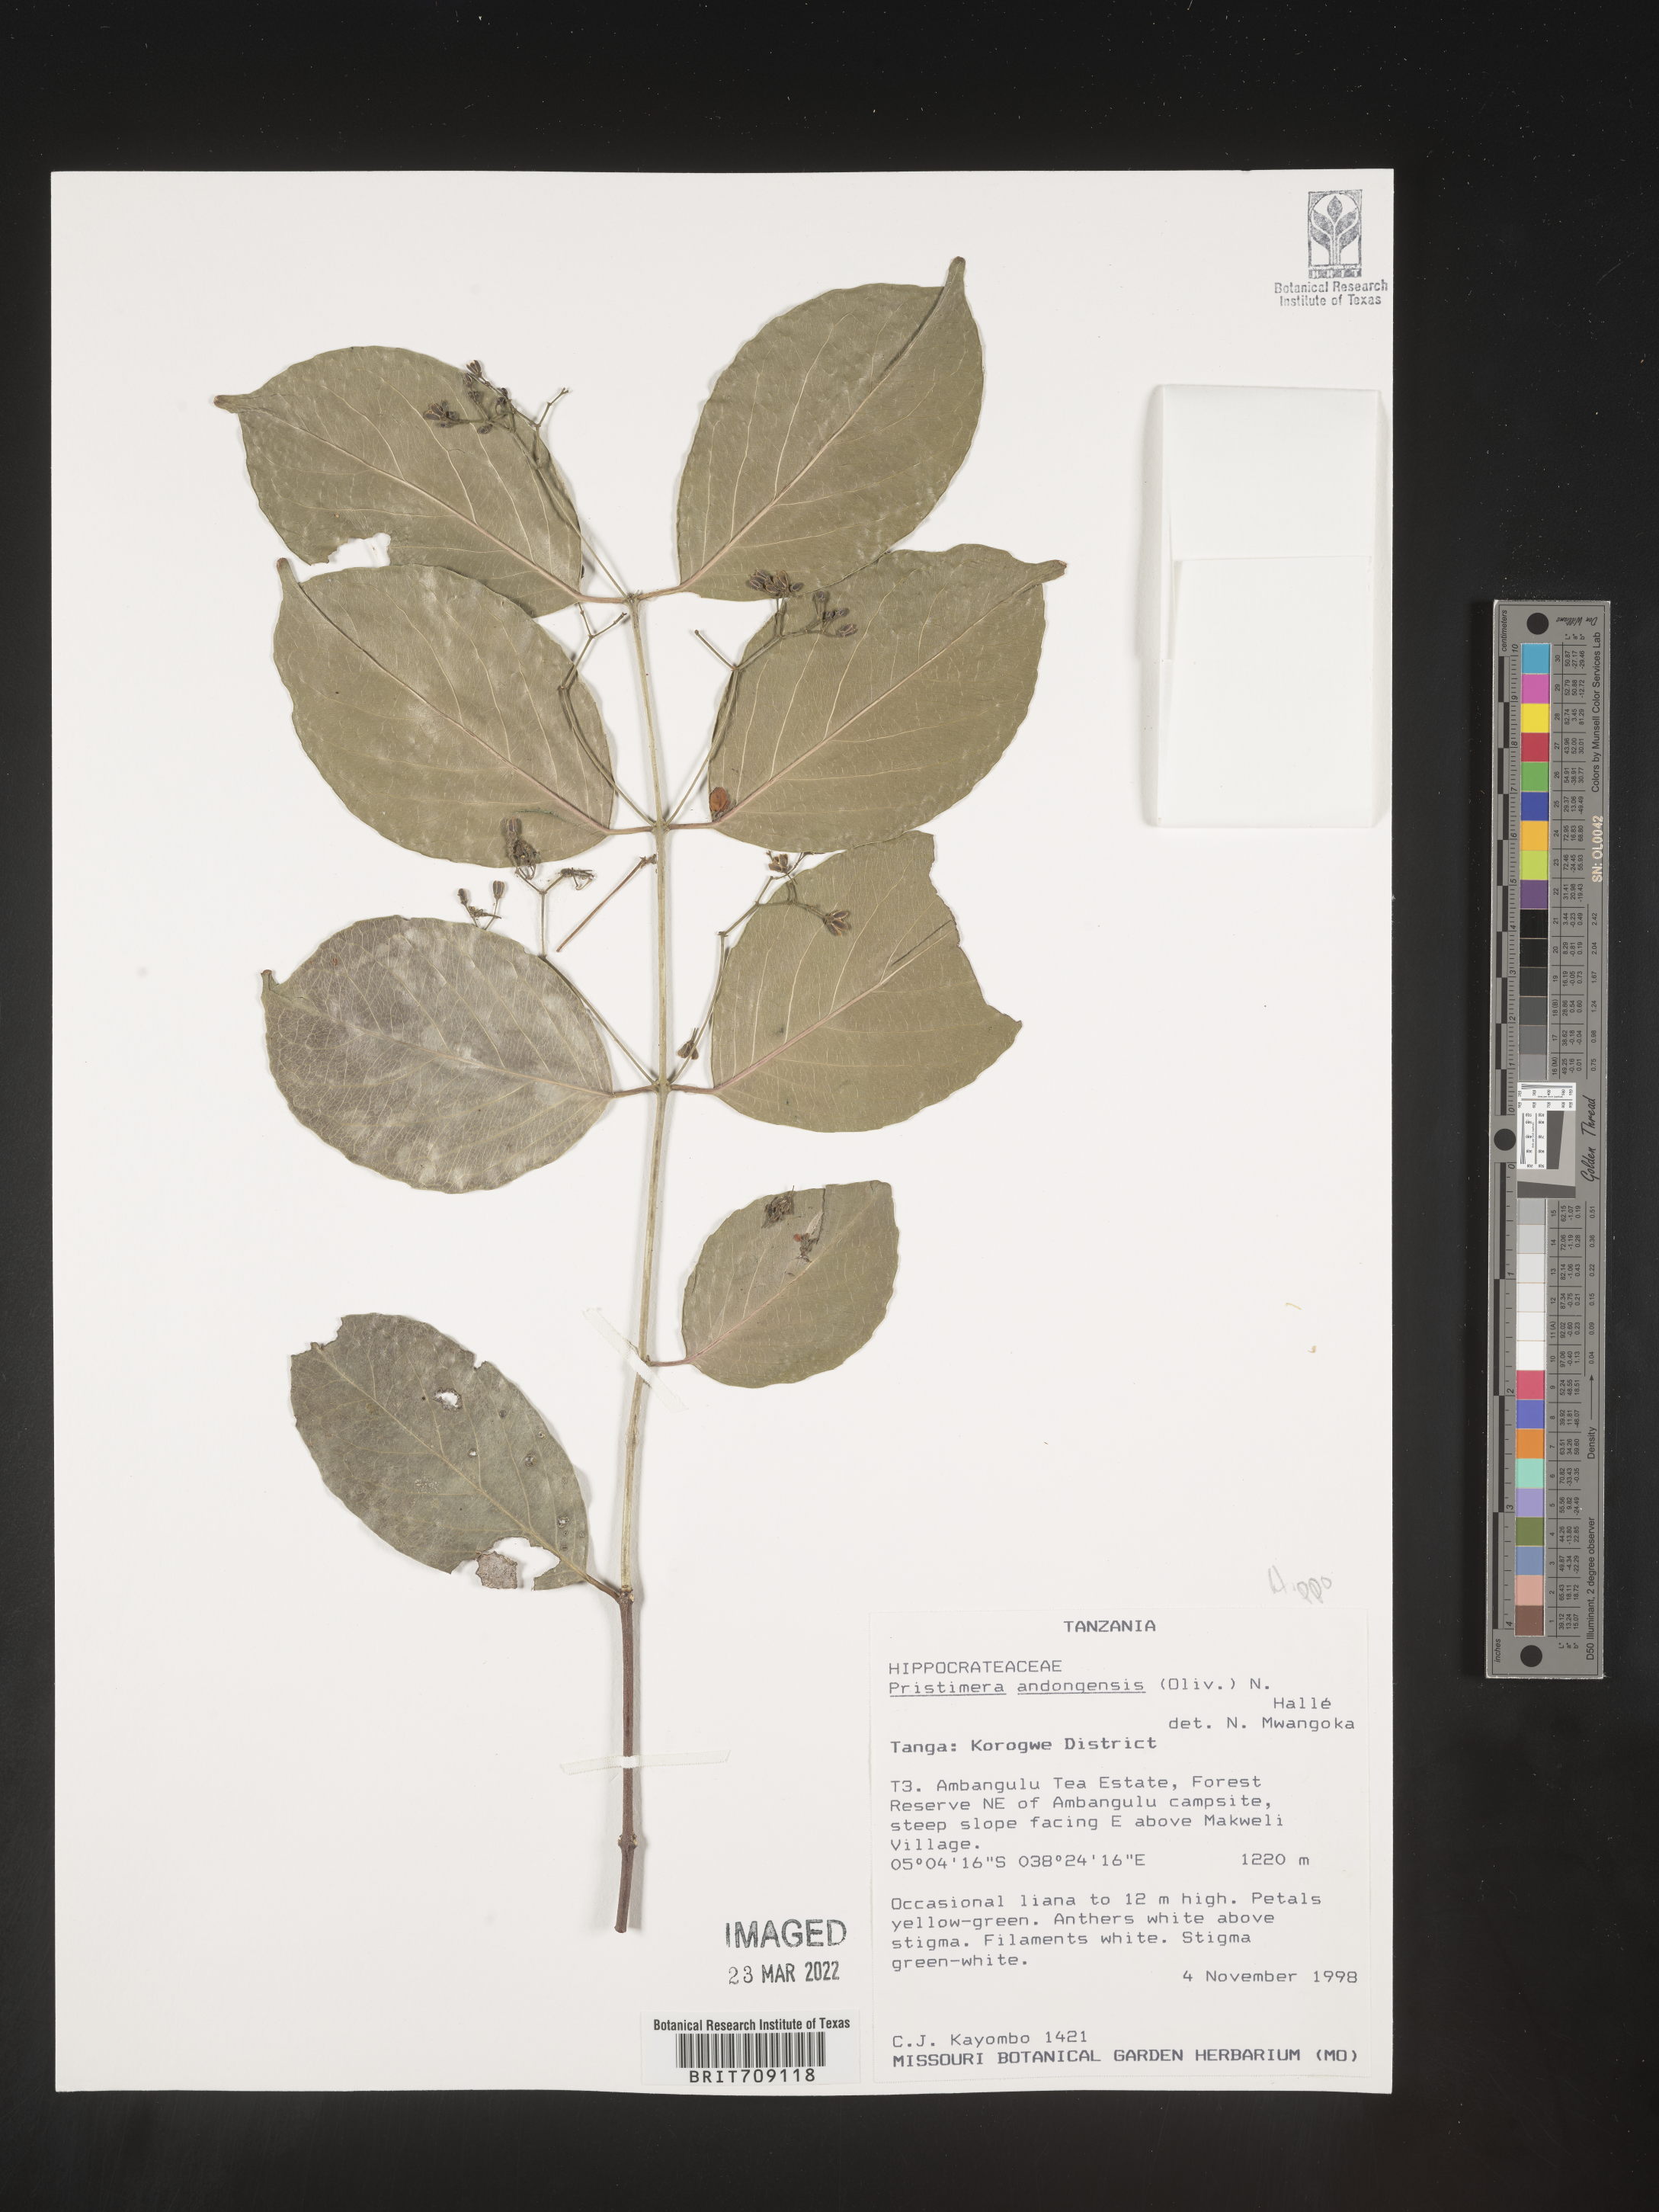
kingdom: Plantae
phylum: Tracheophyta
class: Magnoliopsida
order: Celastrales
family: Celastraceae
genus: Pristimera
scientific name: Pristimera
